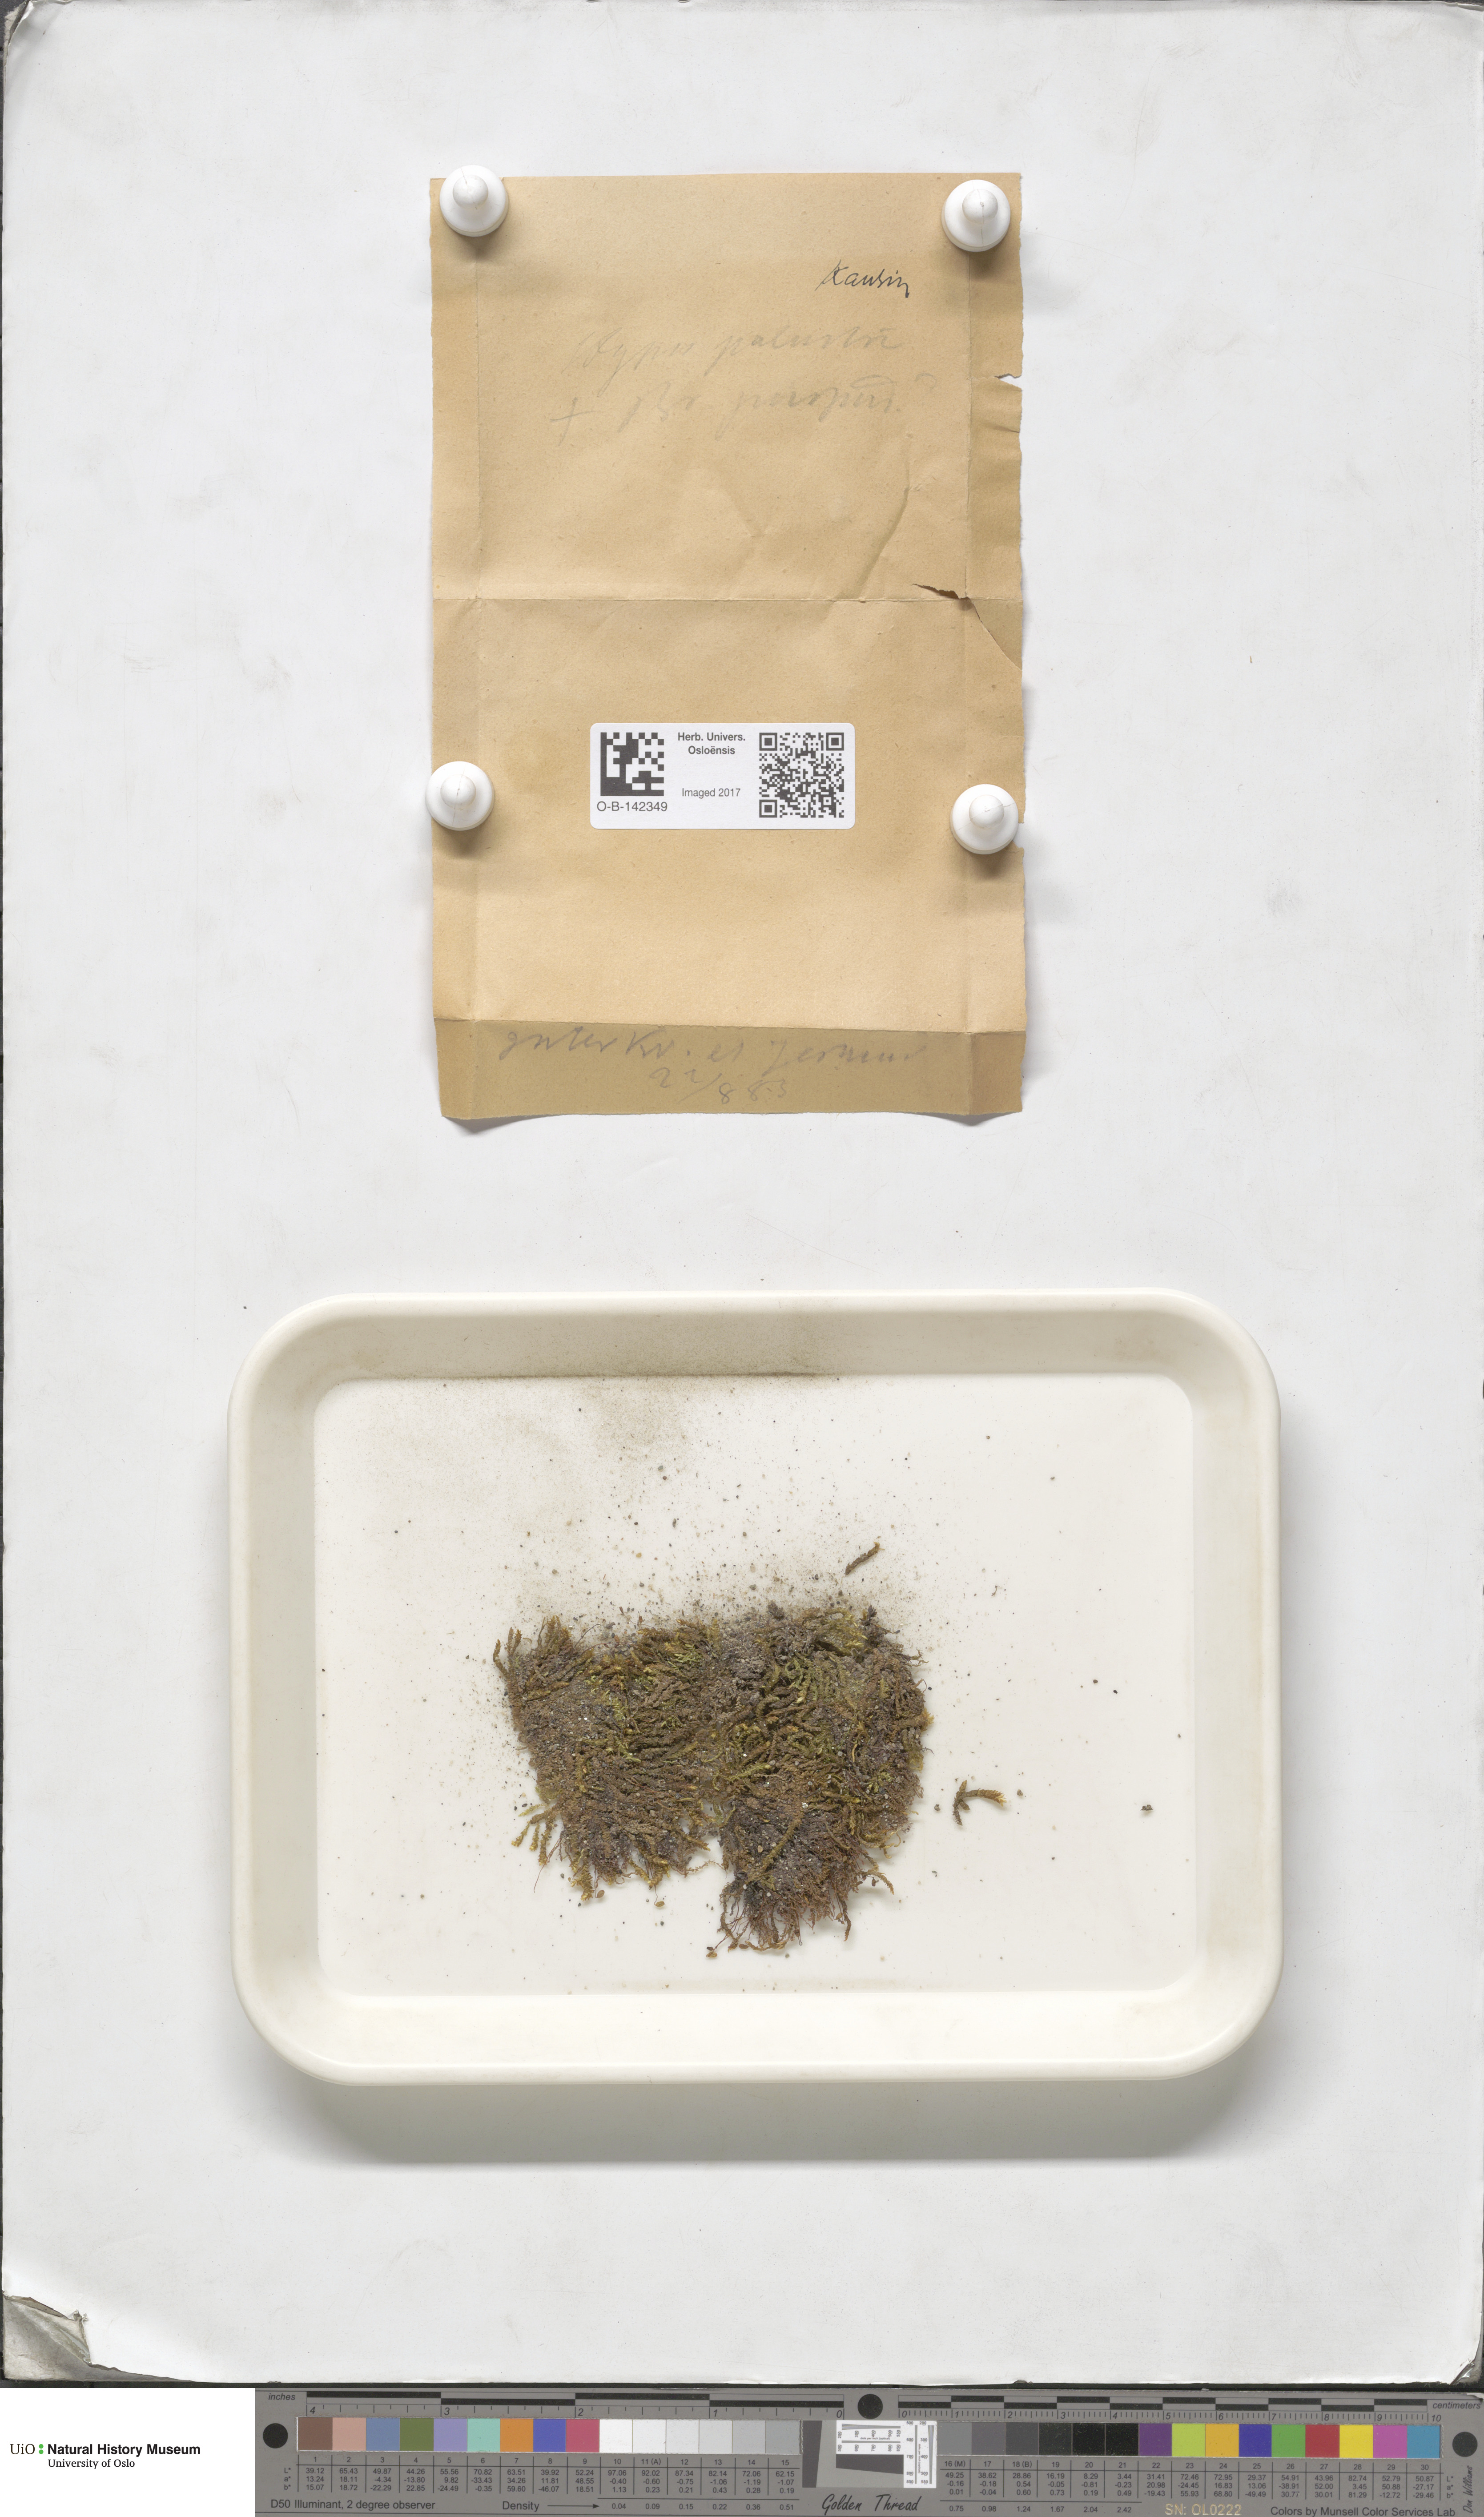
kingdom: Plantae
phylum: Bryophyta
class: Bryopsida
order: Bryales
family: Bryaceae
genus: Ptychostomum
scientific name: Ptychostomum arcticum
